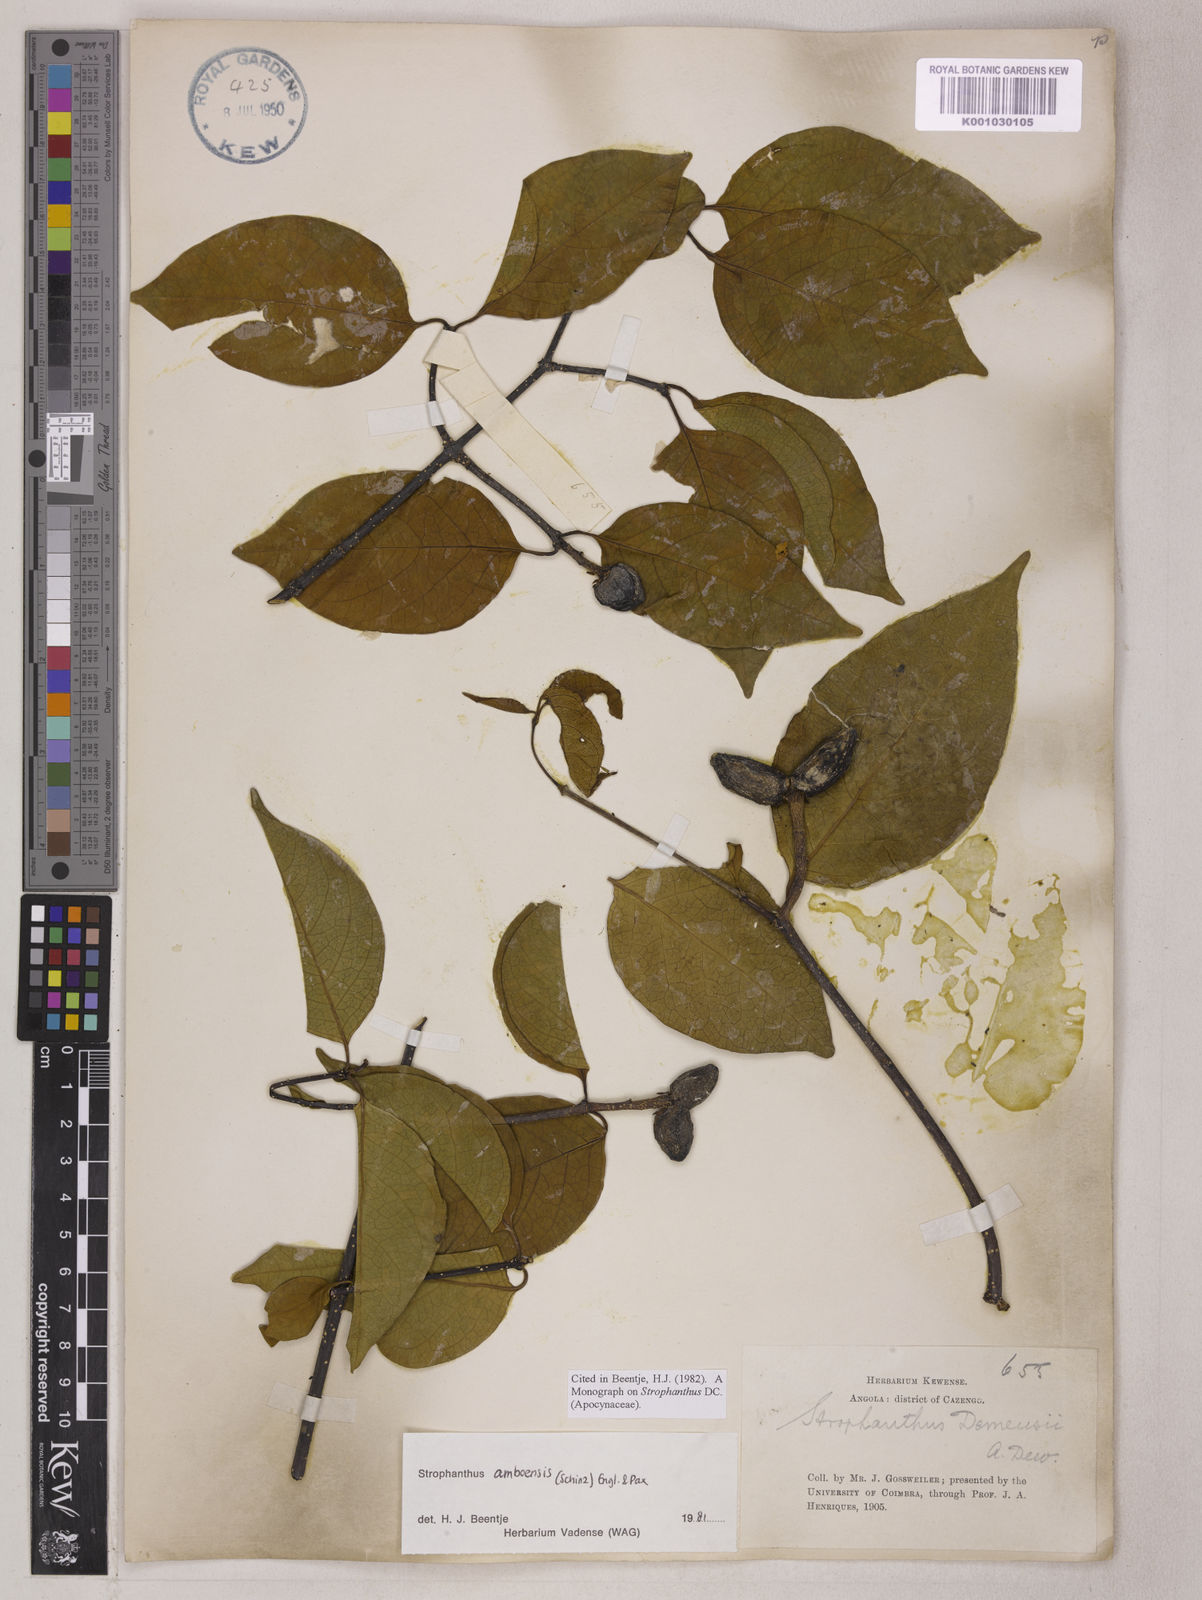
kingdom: Plantae
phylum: Tracheophyta
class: Magnoliopsida
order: Gentianales
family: Apocynaceae
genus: Strophanthus
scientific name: Strophanthus amboensis
